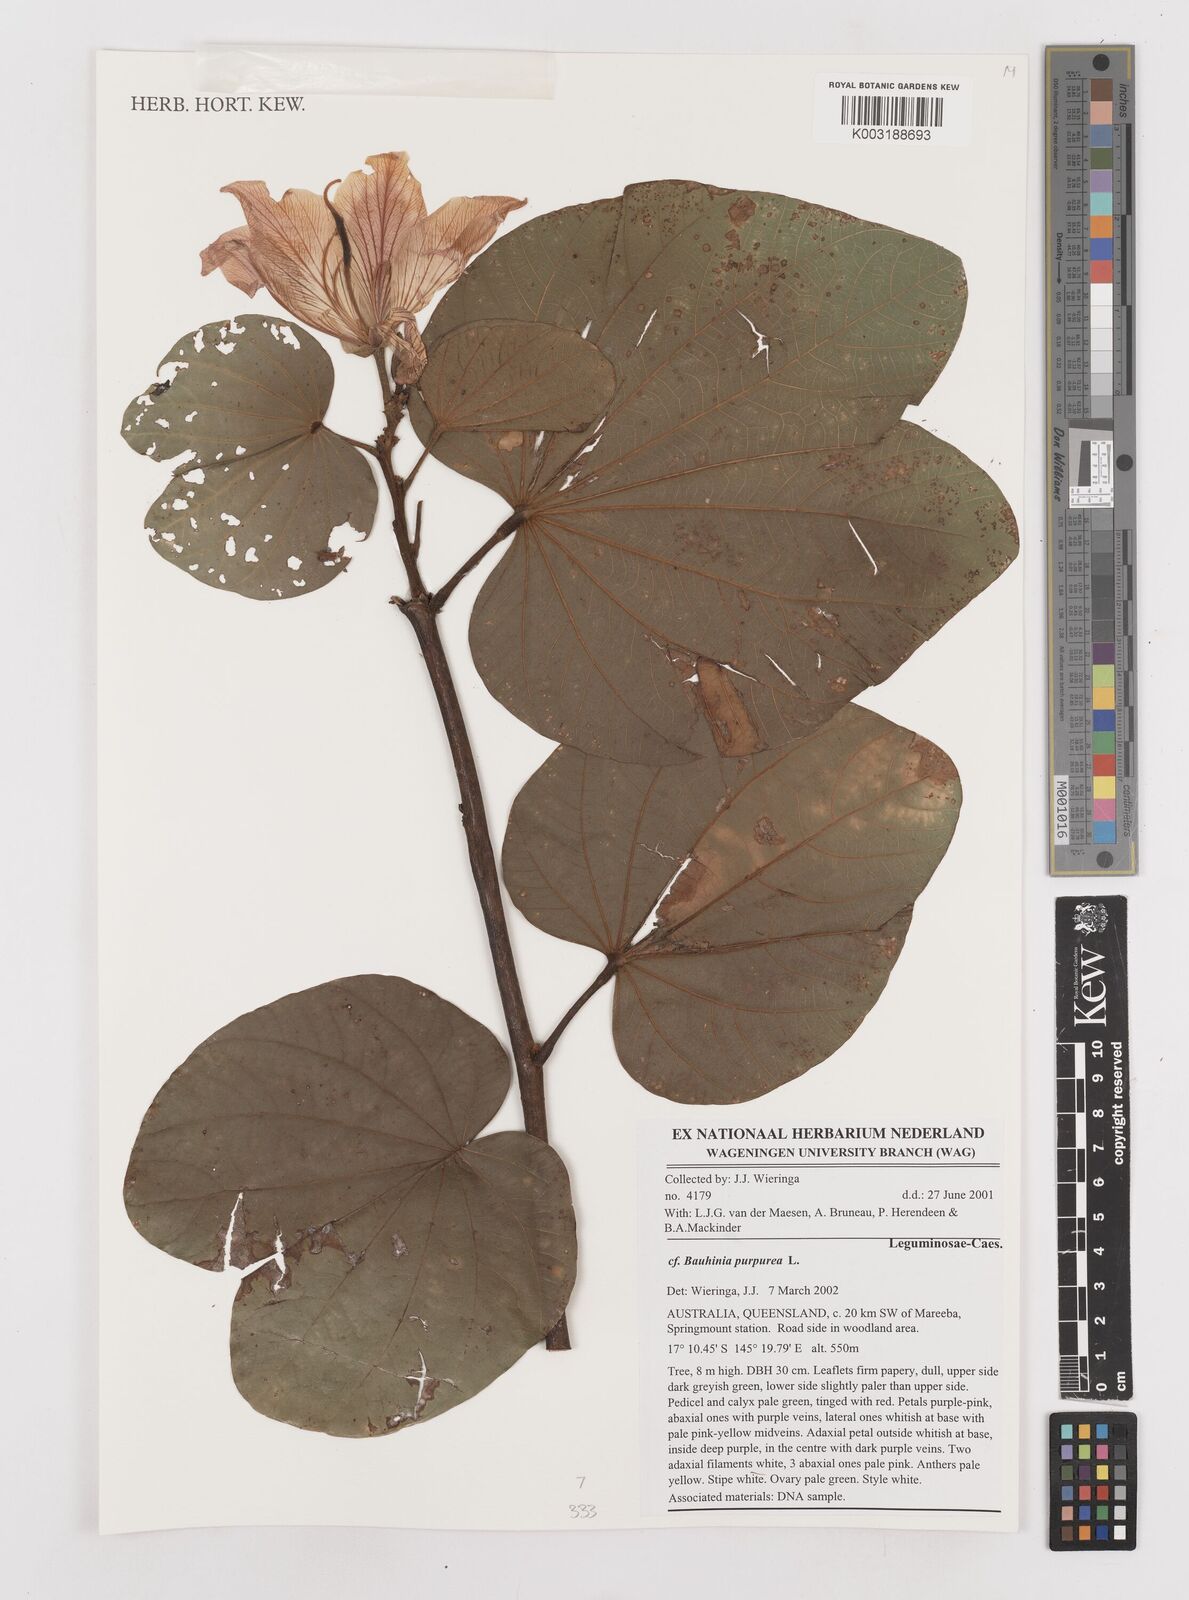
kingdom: Plantae
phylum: Tracheophyta
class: Magnoliopsida
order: Fabales
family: Fabaceae
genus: Bauhinia
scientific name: Bauhinia purpurea
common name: Butterfly-tree
